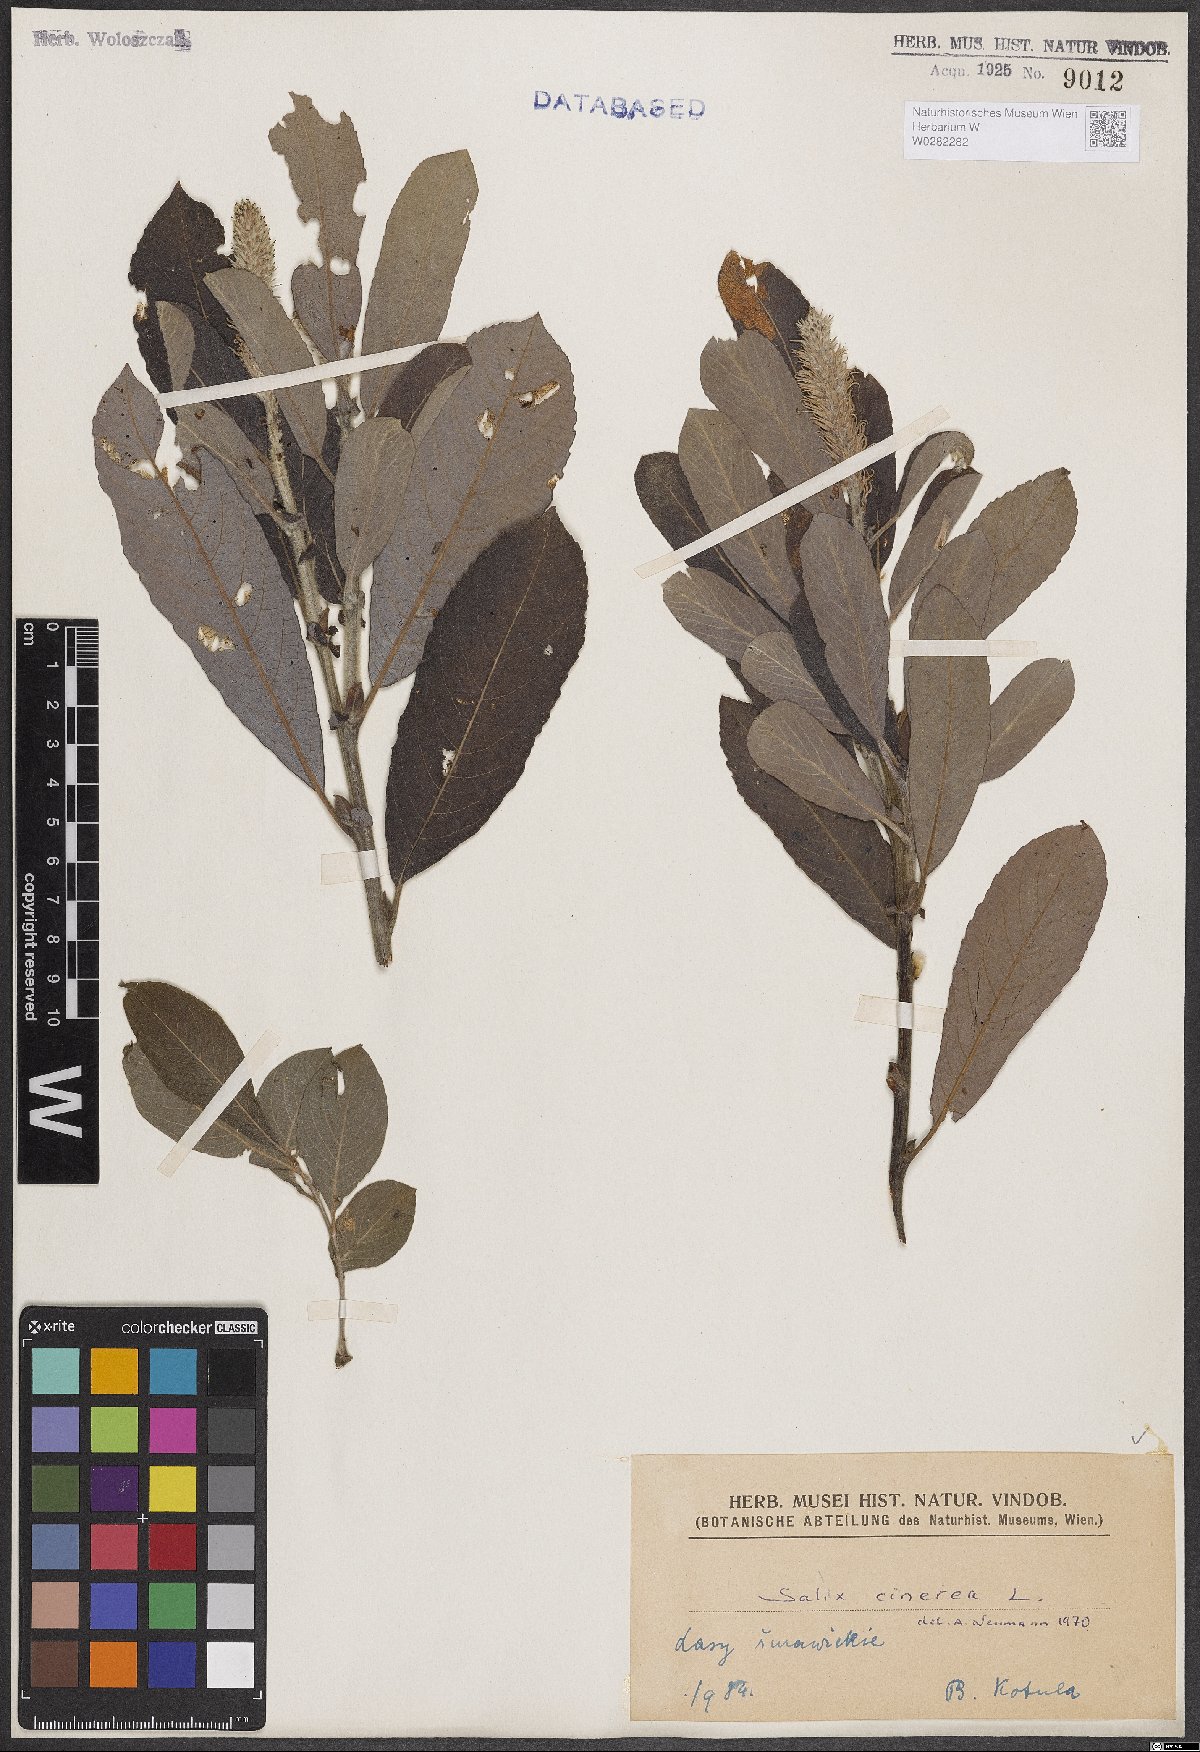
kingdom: Plantae
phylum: Tracheophyta
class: Magnoliopsida
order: Malpighiales
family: Salicaceae
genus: Salix
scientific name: Salix cinerea
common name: Common sallow
